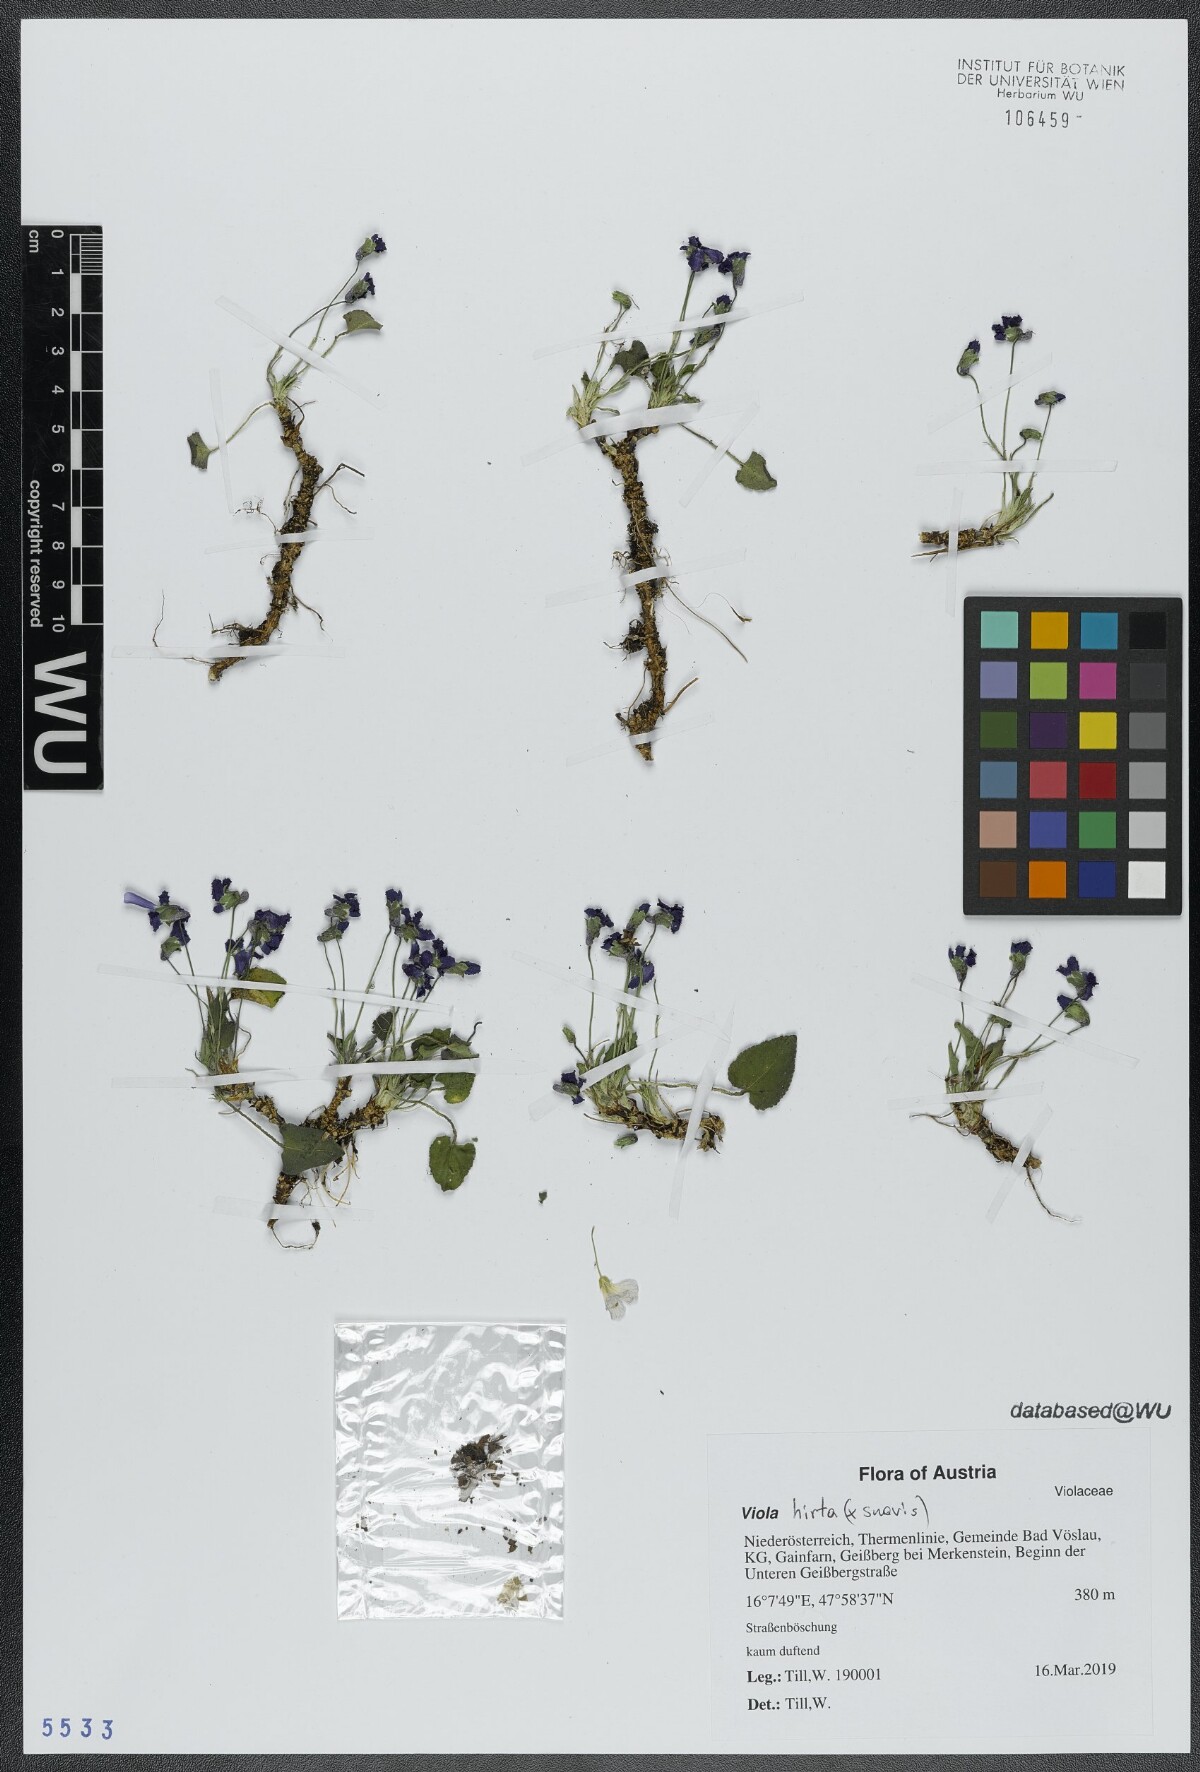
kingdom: Plantae
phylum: Tracheophyta
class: Magnoliopsida
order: Malpighiales
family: Violaceae
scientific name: Violaceae
